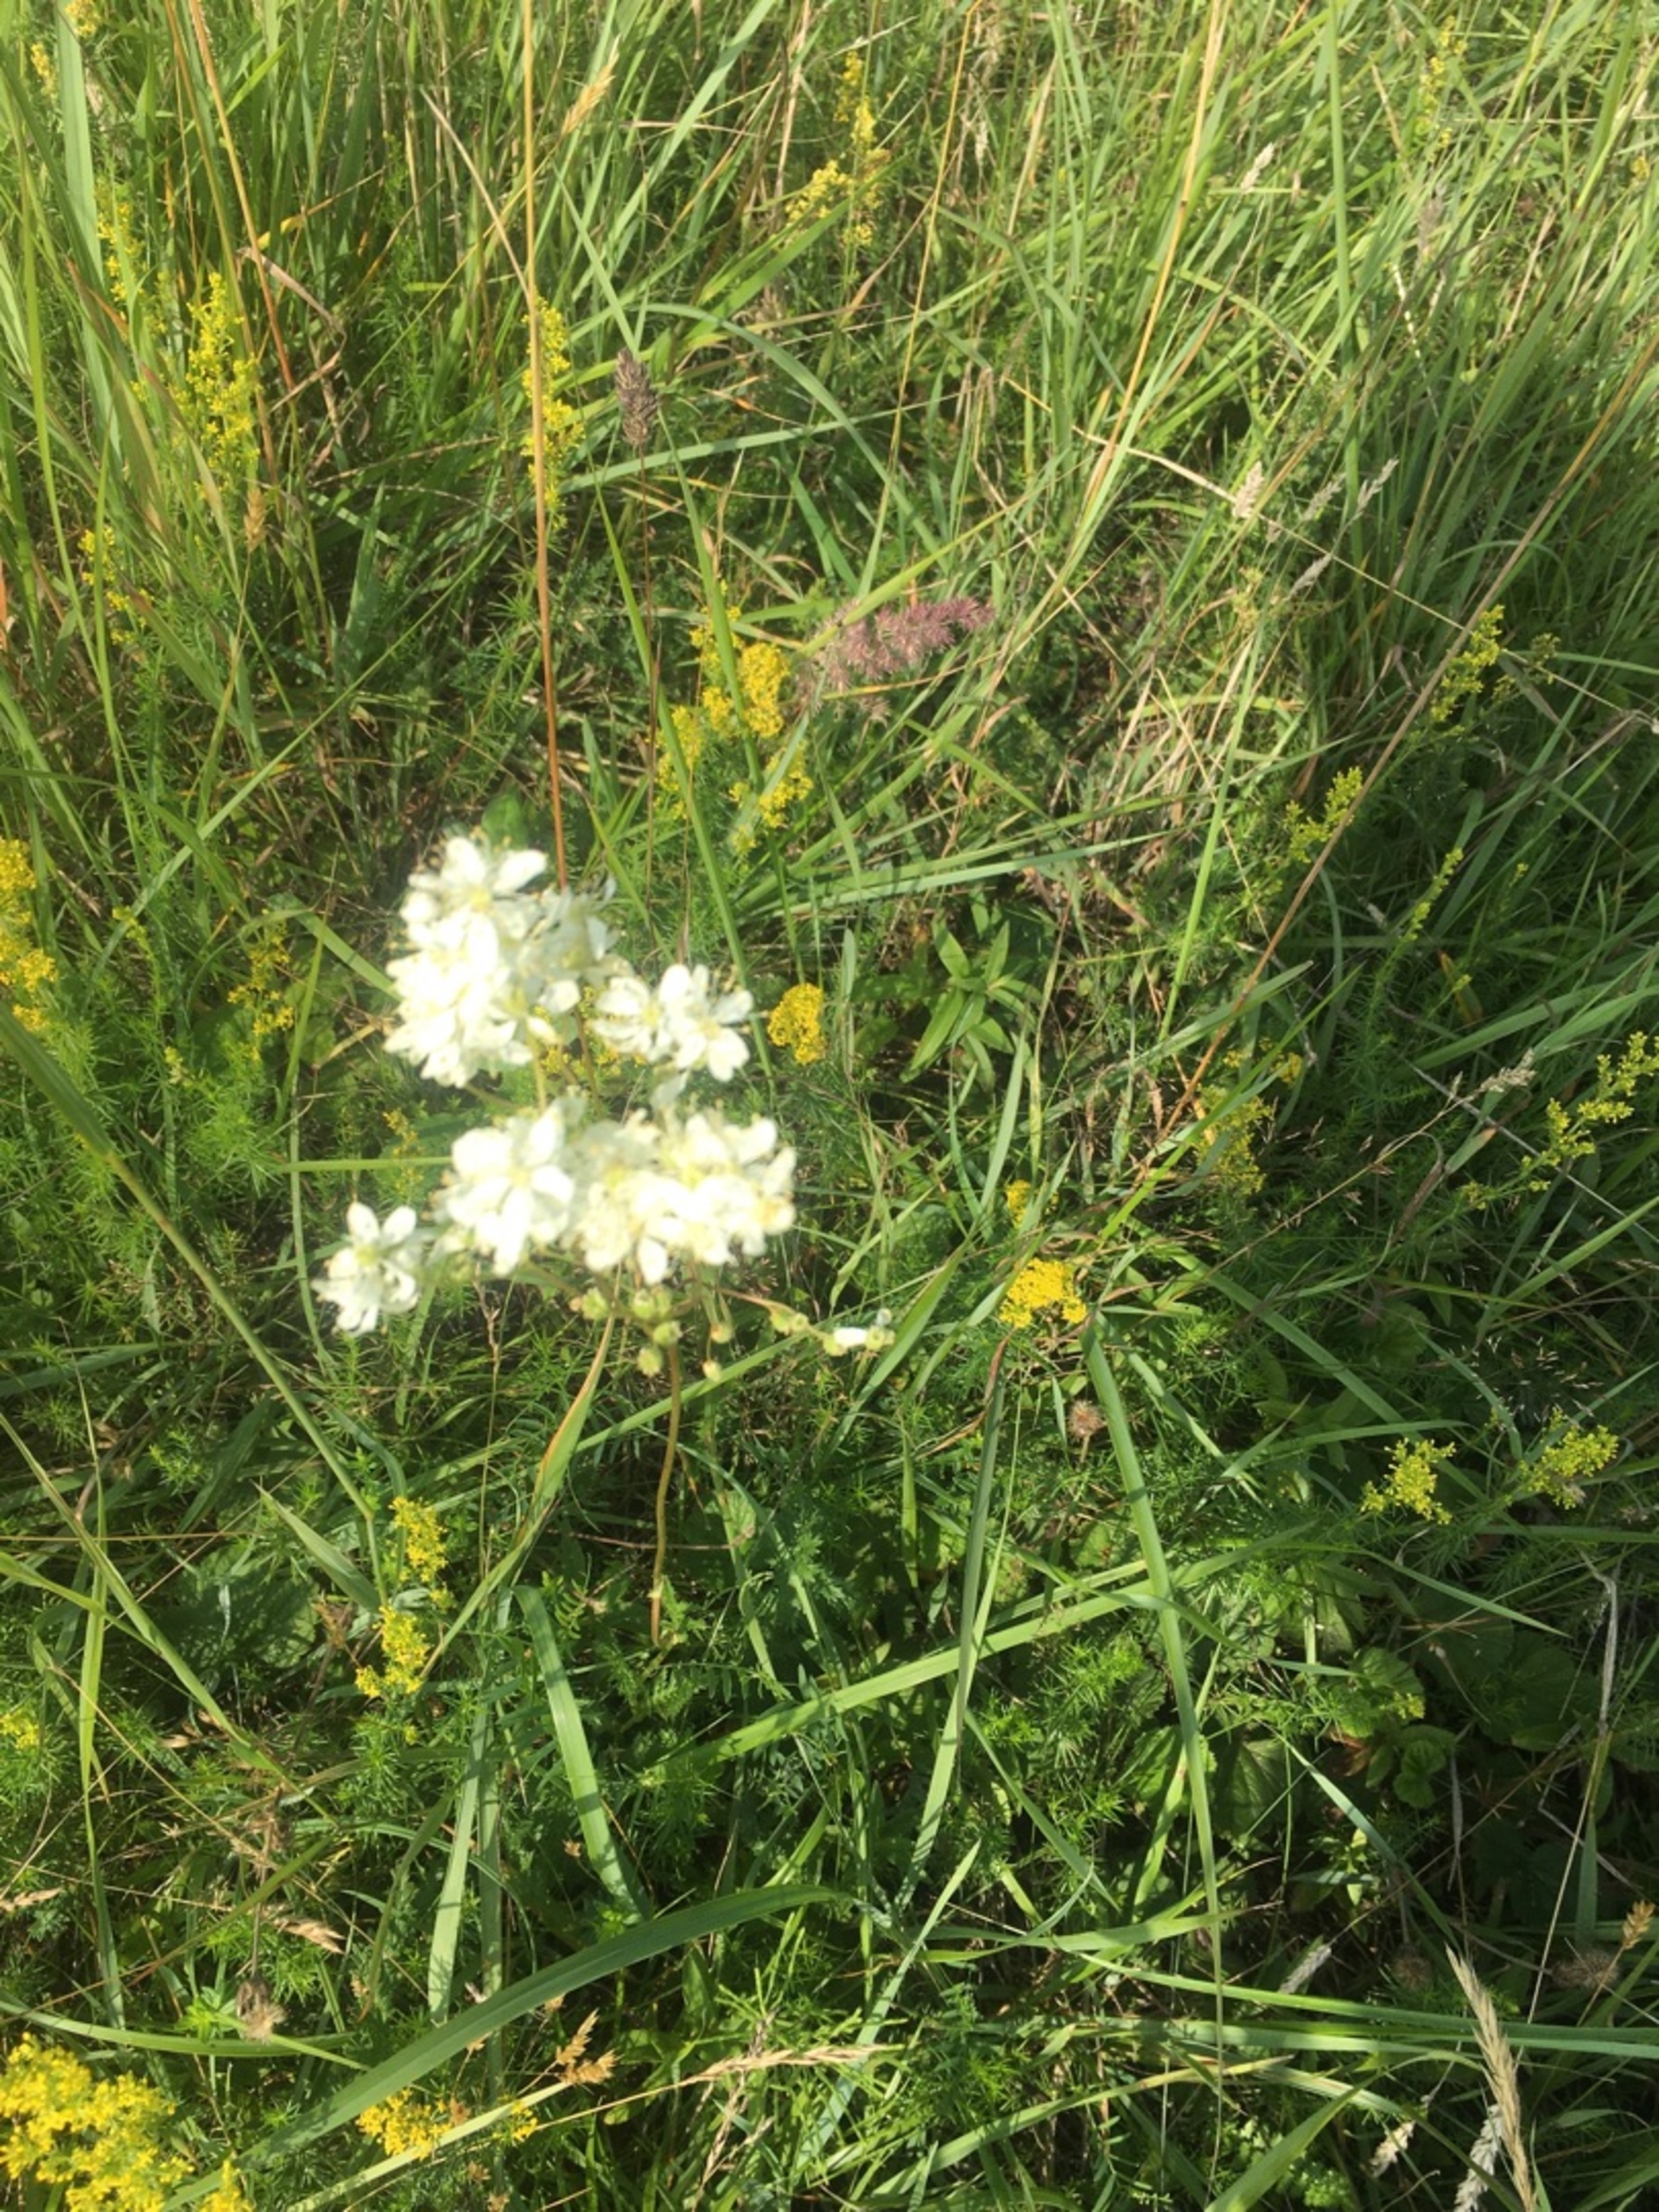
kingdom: Plantae
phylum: Tracheophyta
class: Magnoliopsida
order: Rosales
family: Rosaceae
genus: Filipendula
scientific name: Filipendula vulgaris
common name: Knoldet mjødurt
